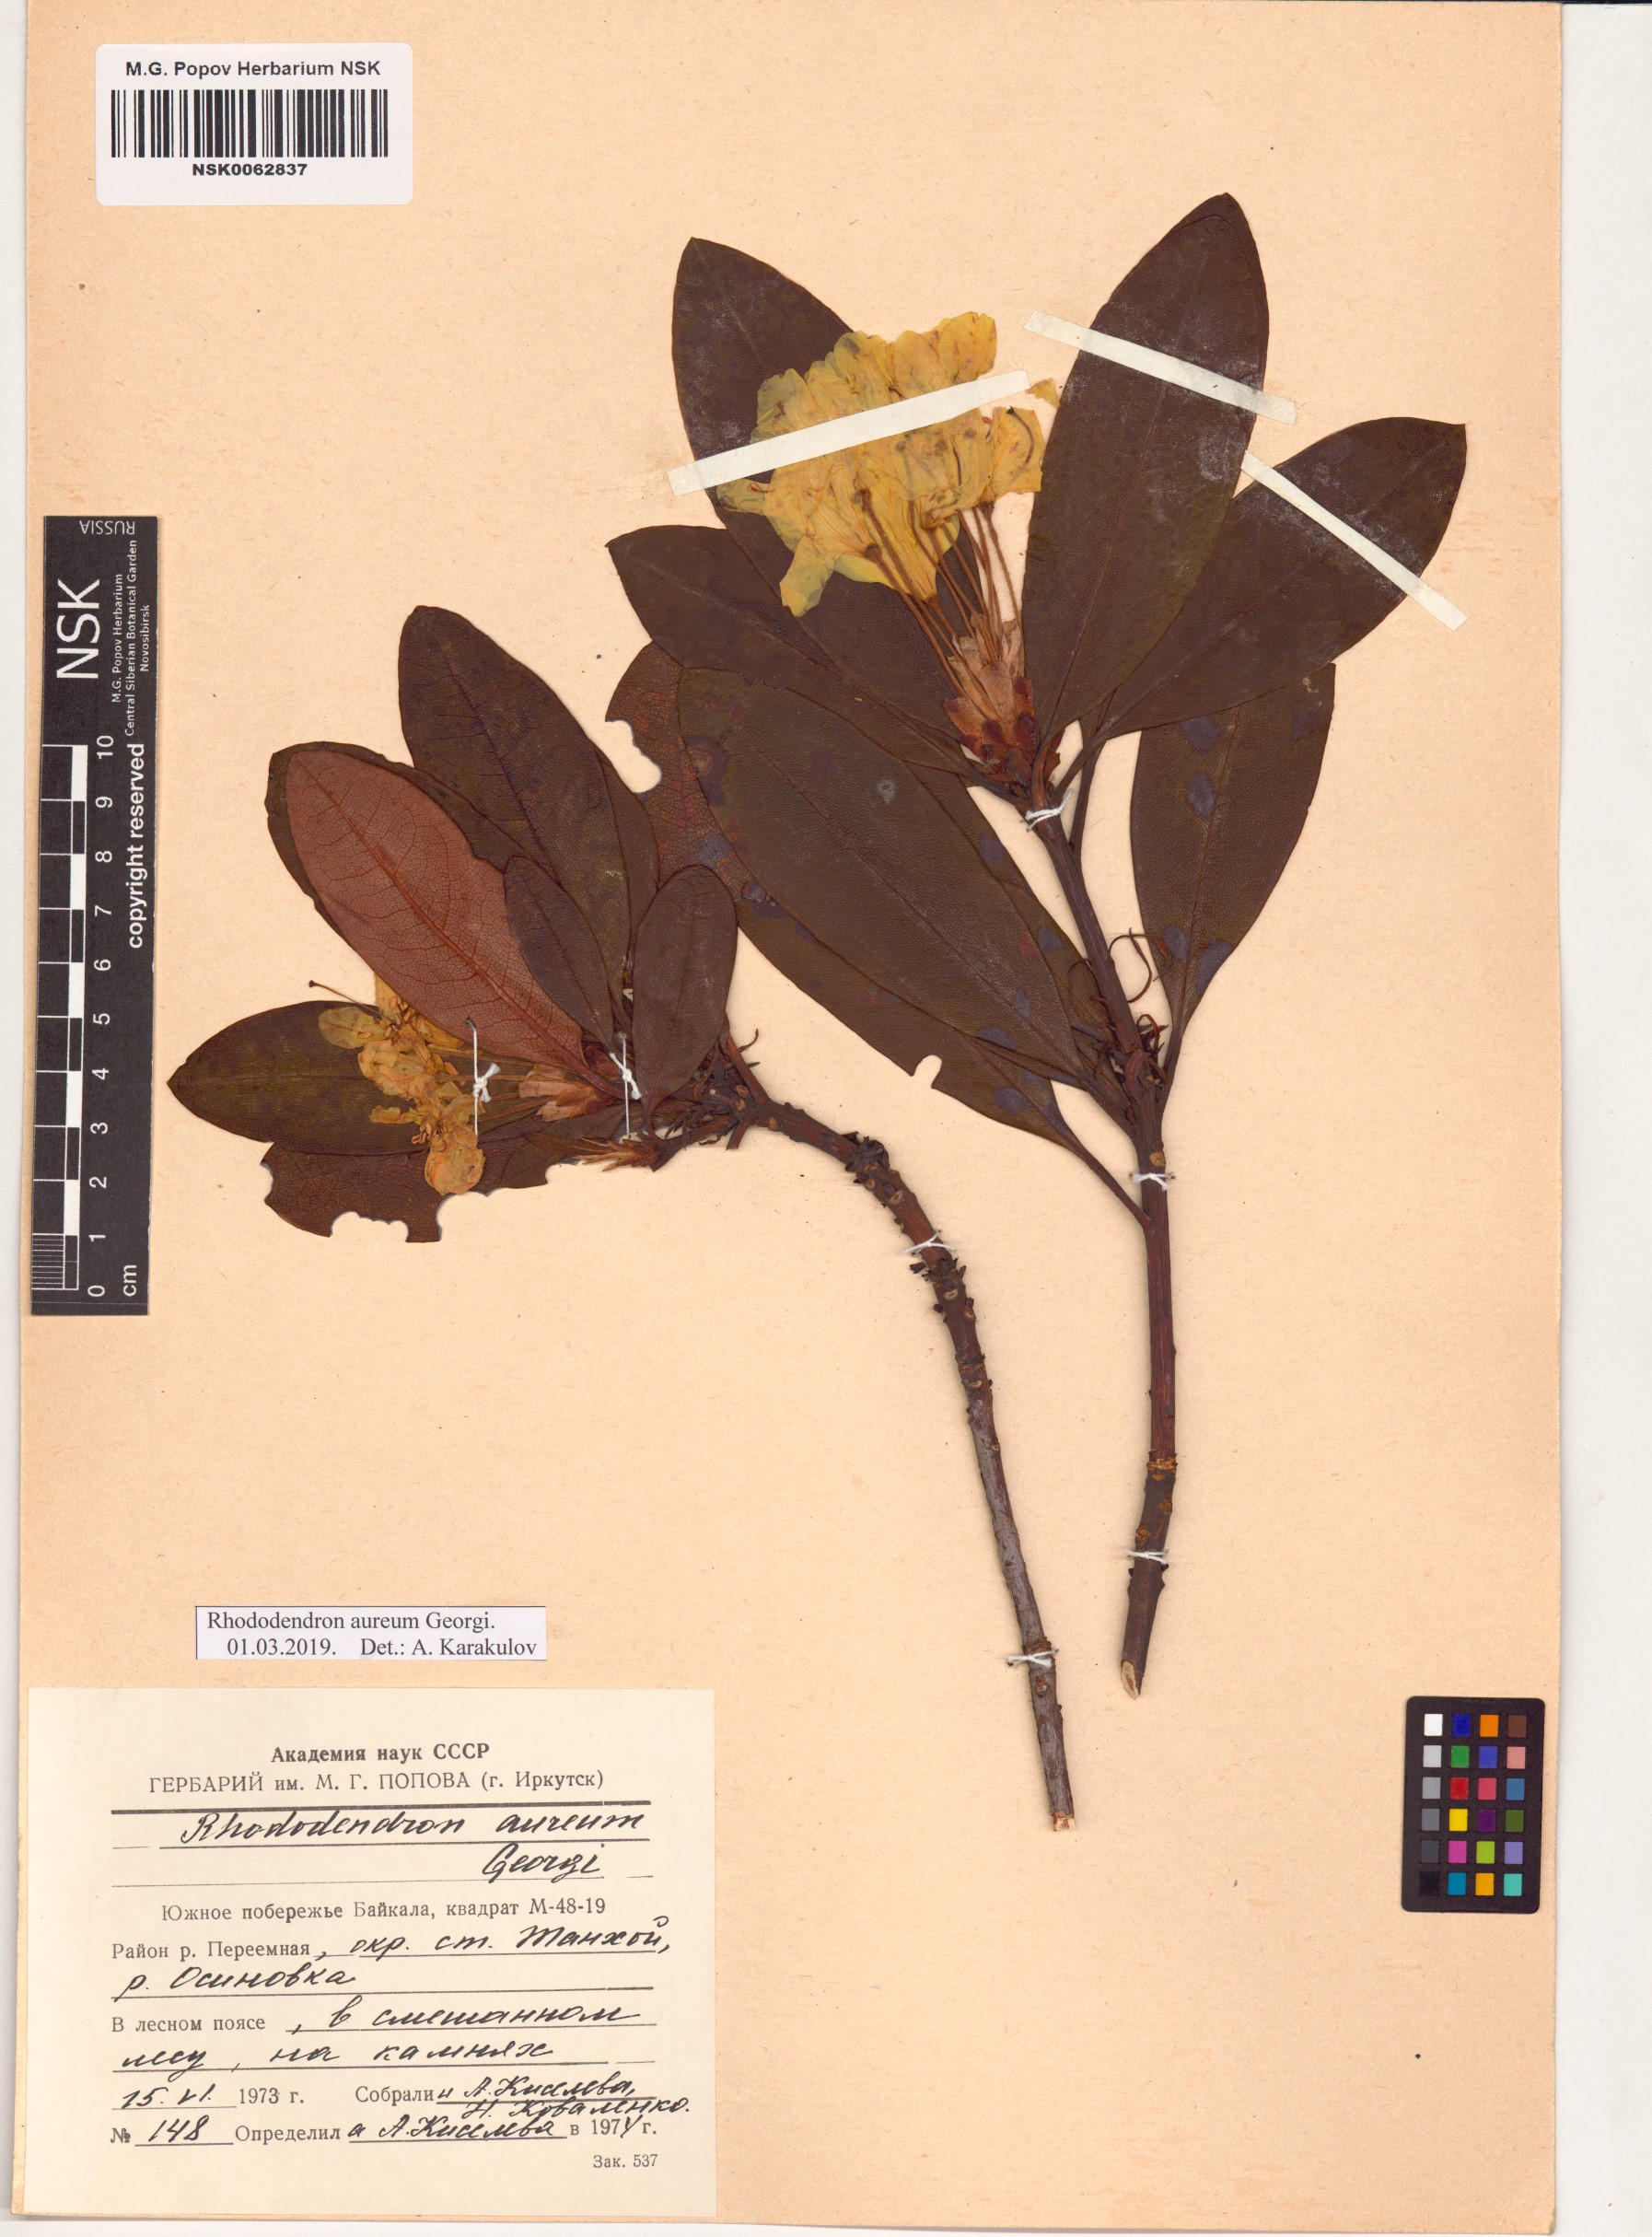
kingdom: Plantae
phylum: Tracheophyta
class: Magnoliopsida
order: Ericales
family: Ericaceae
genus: Rhododendron
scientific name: Rhododendron aureum
